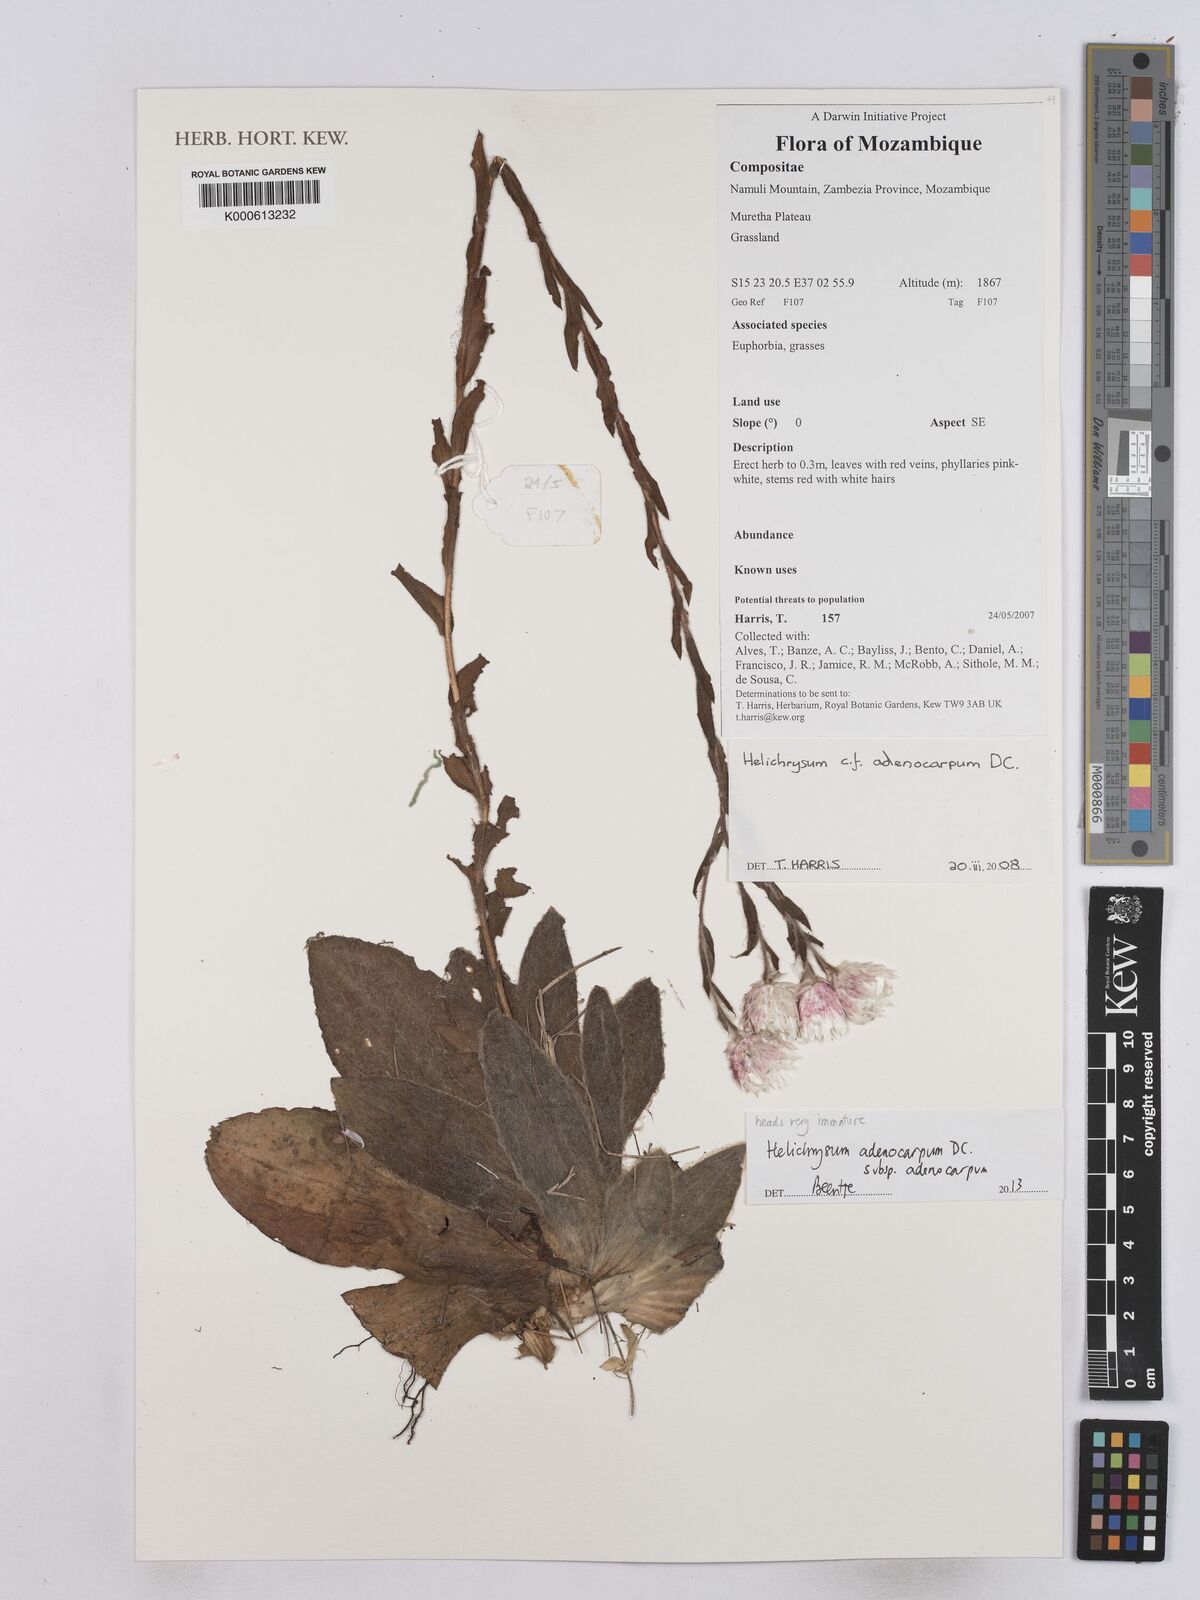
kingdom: Plantae
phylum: Tracheophyta
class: Magnoliopsida
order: Asterales
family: Asteraceae
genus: Helichrysum
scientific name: Helichrysum adenocarpum
